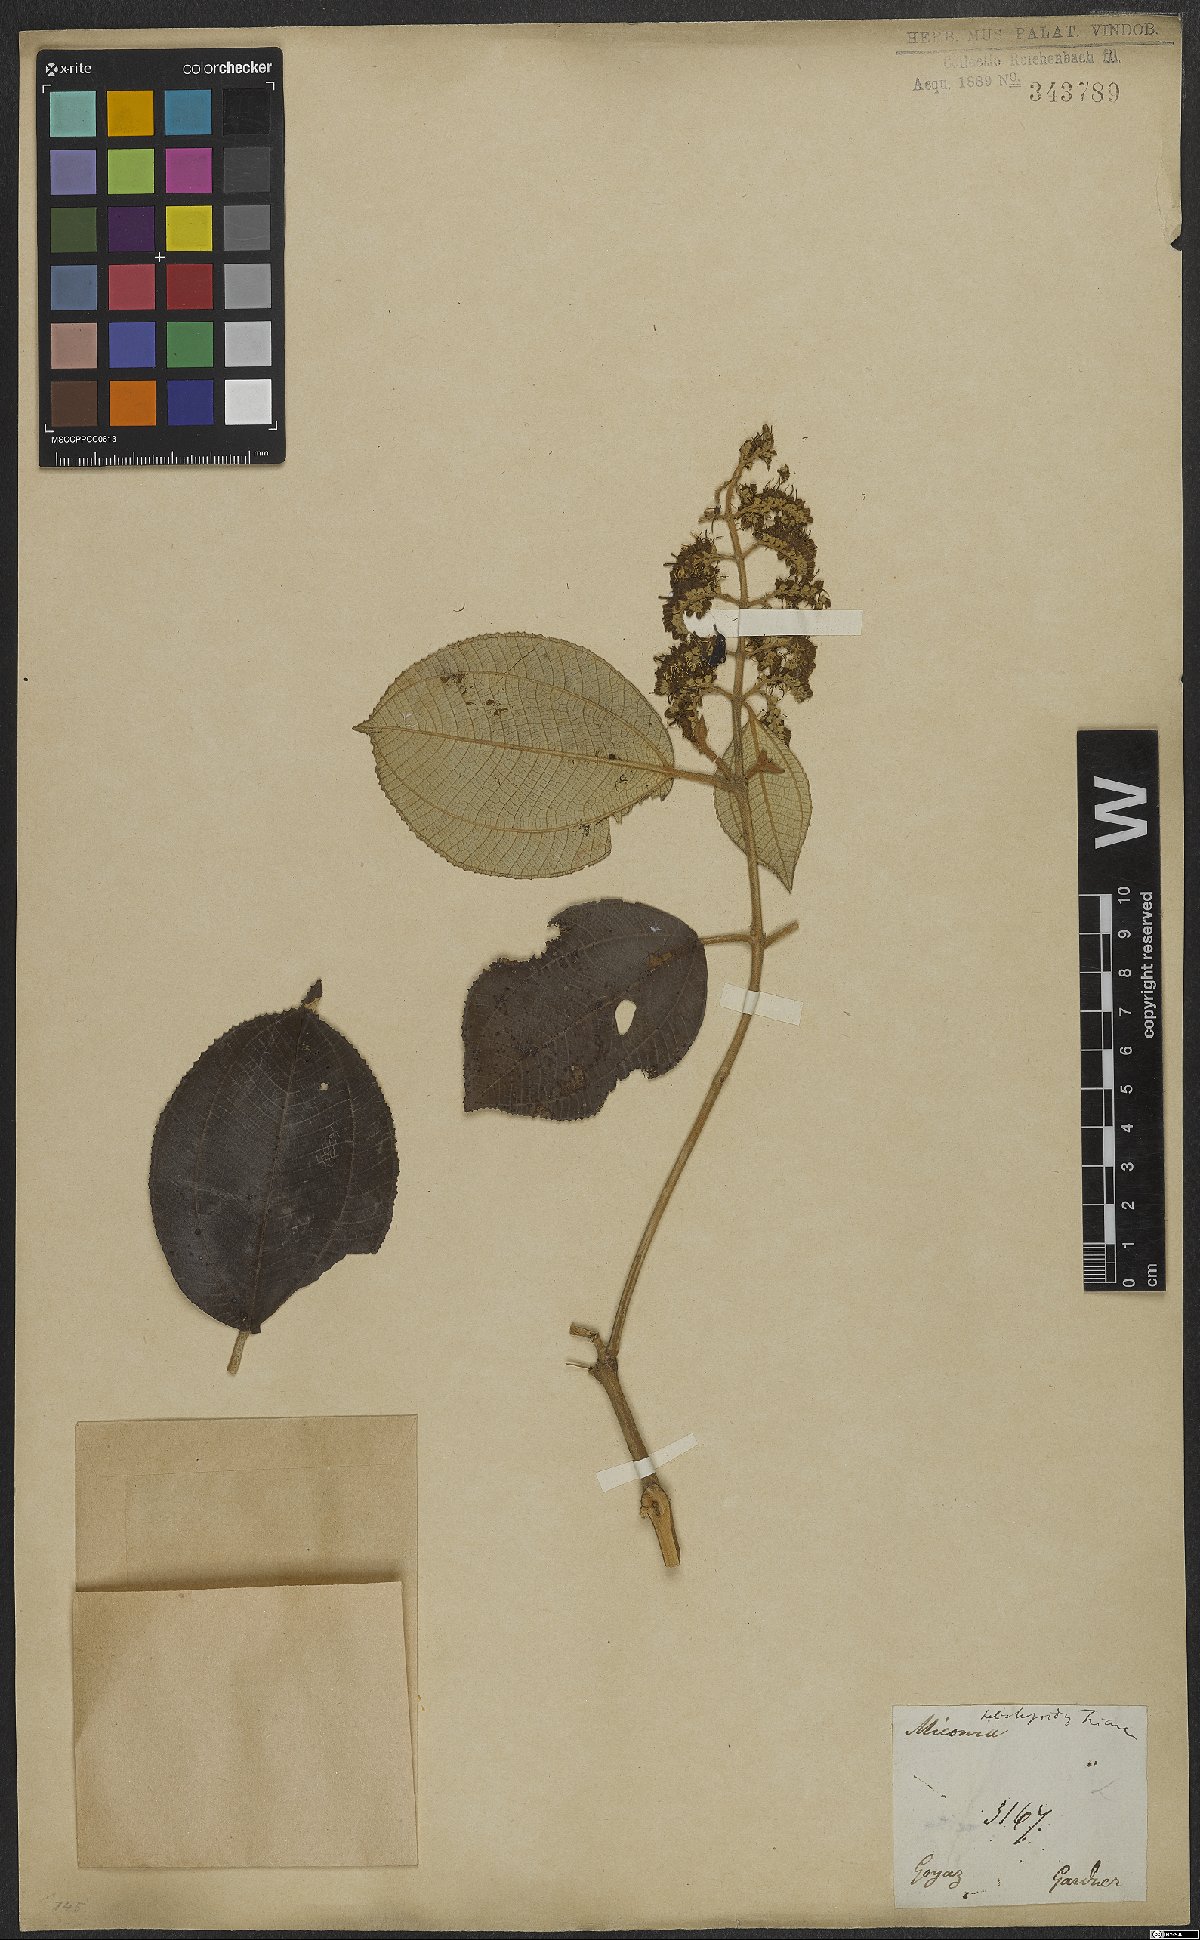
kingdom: Plantae
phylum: Tracheophyta
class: Magnoliopsida
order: Myrtales
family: Melastomataceae
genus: Miconia
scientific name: Miconia heliotropoides
